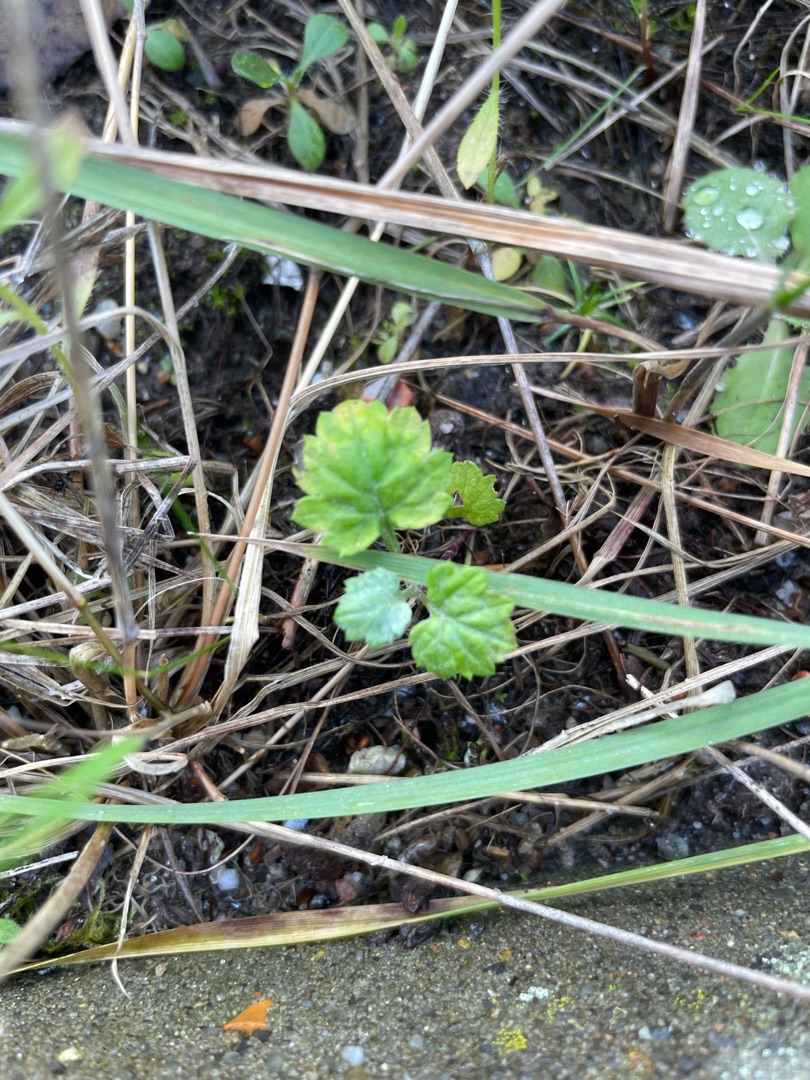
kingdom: Plantae
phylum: Tracheophyta
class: Magnoliopsida
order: Rosales
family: Urticaceae
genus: Urtica
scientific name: Urtica dioica
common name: Stor nælde
